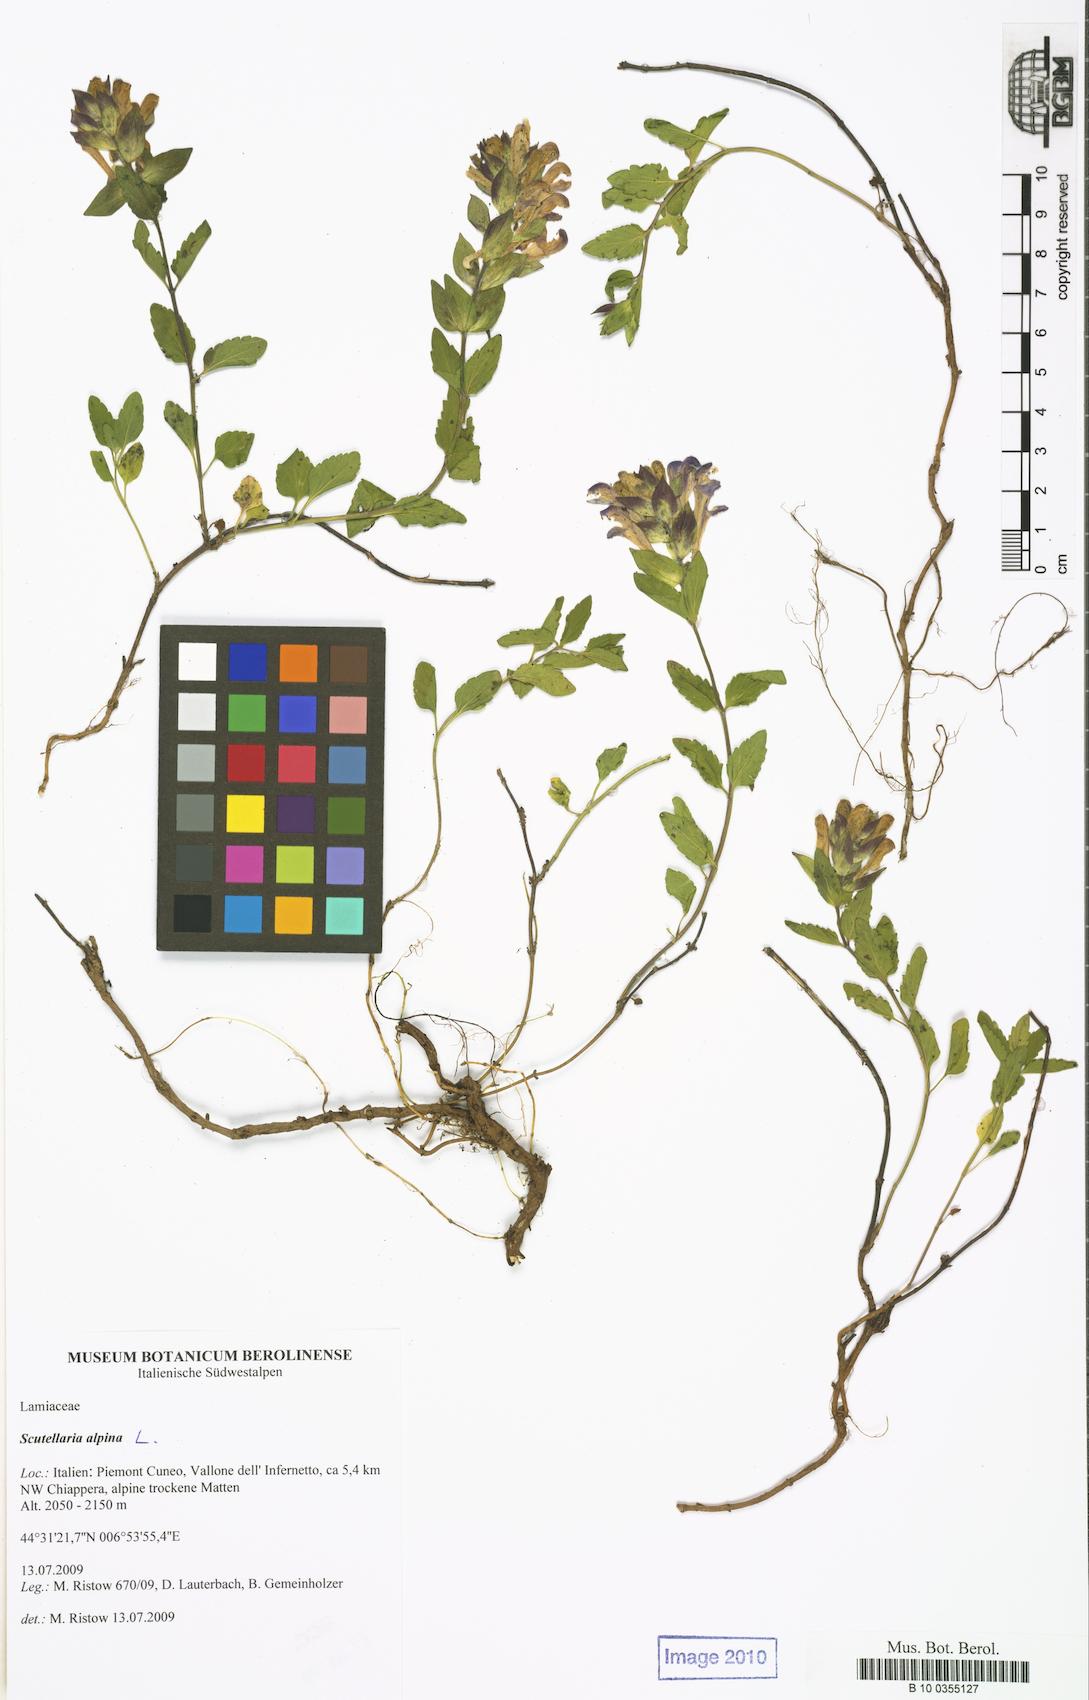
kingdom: Plantae
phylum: Tracheophyta
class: Magnoliopsida
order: Lamiales
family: Lamiaceae
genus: Scutellaria
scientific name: Scutellaria alpina
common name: Alpine scullcap
